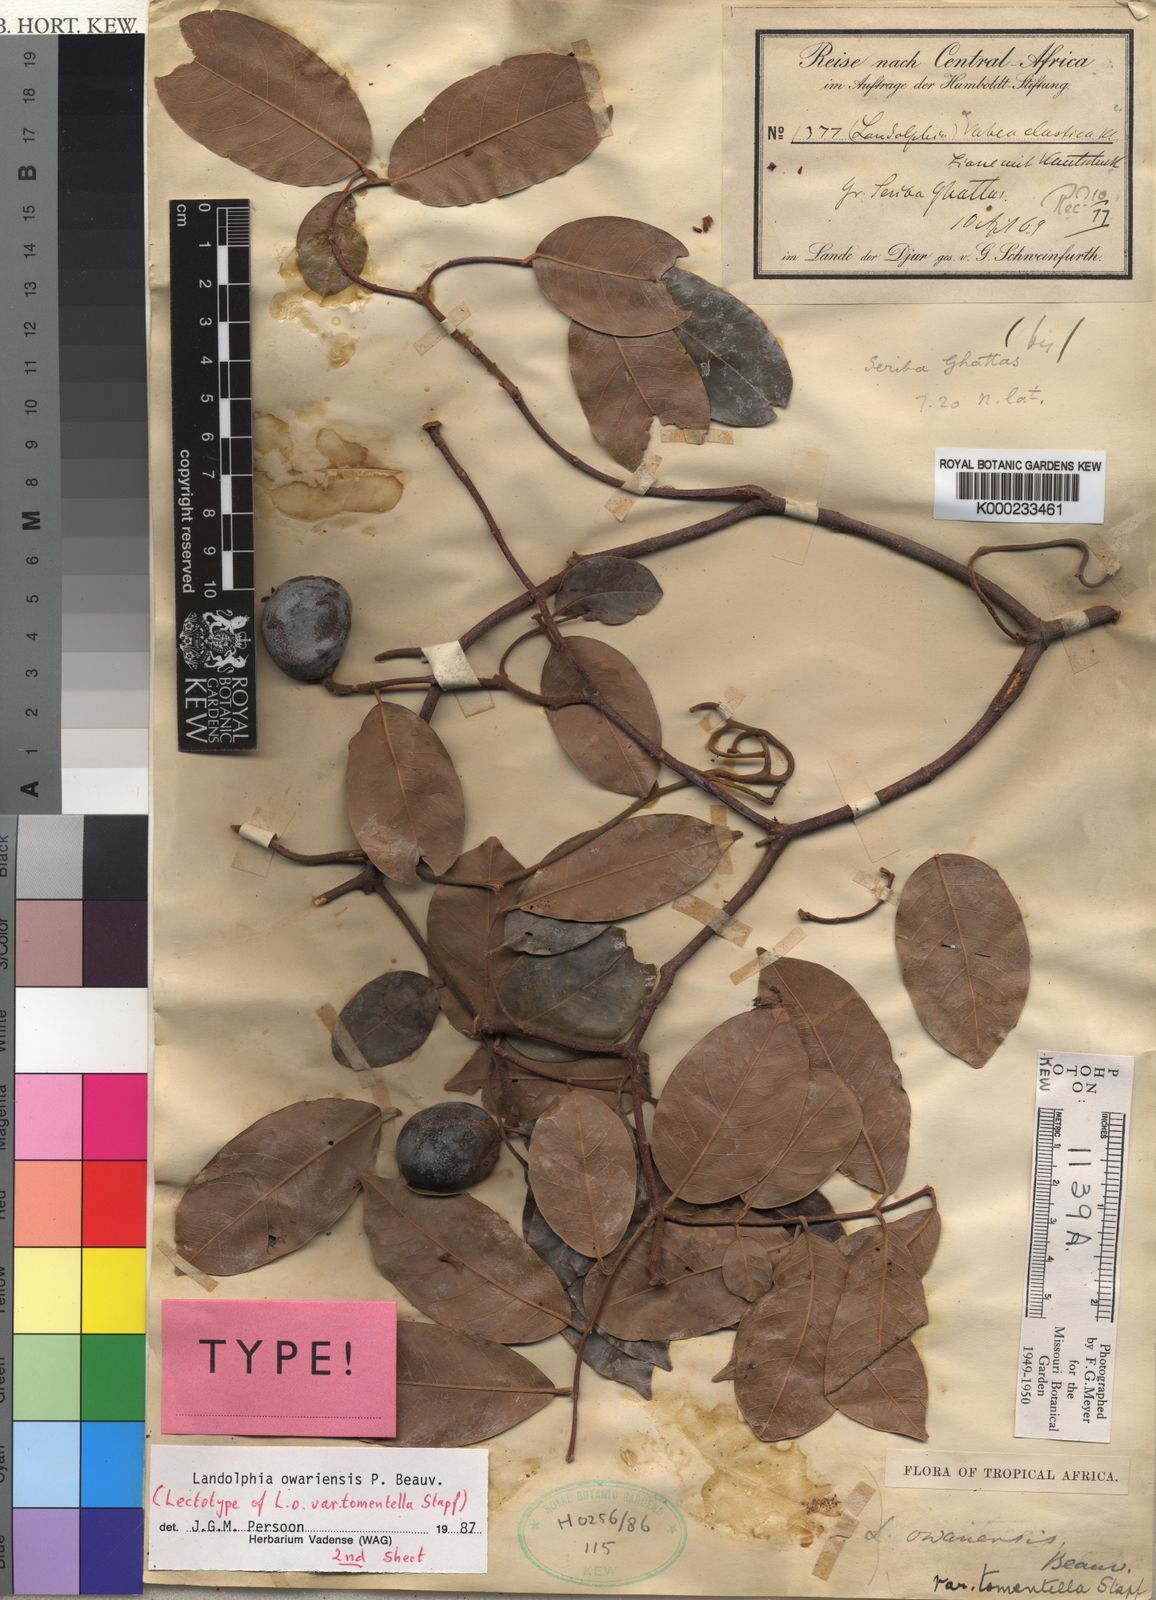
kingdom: Plantae
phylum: Tracheophyta
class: Magnoliopsida
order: Gentianales
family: Apocynaceae
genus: Landolphia
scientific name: Landolphia owariensis
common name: White-ball-rubber
